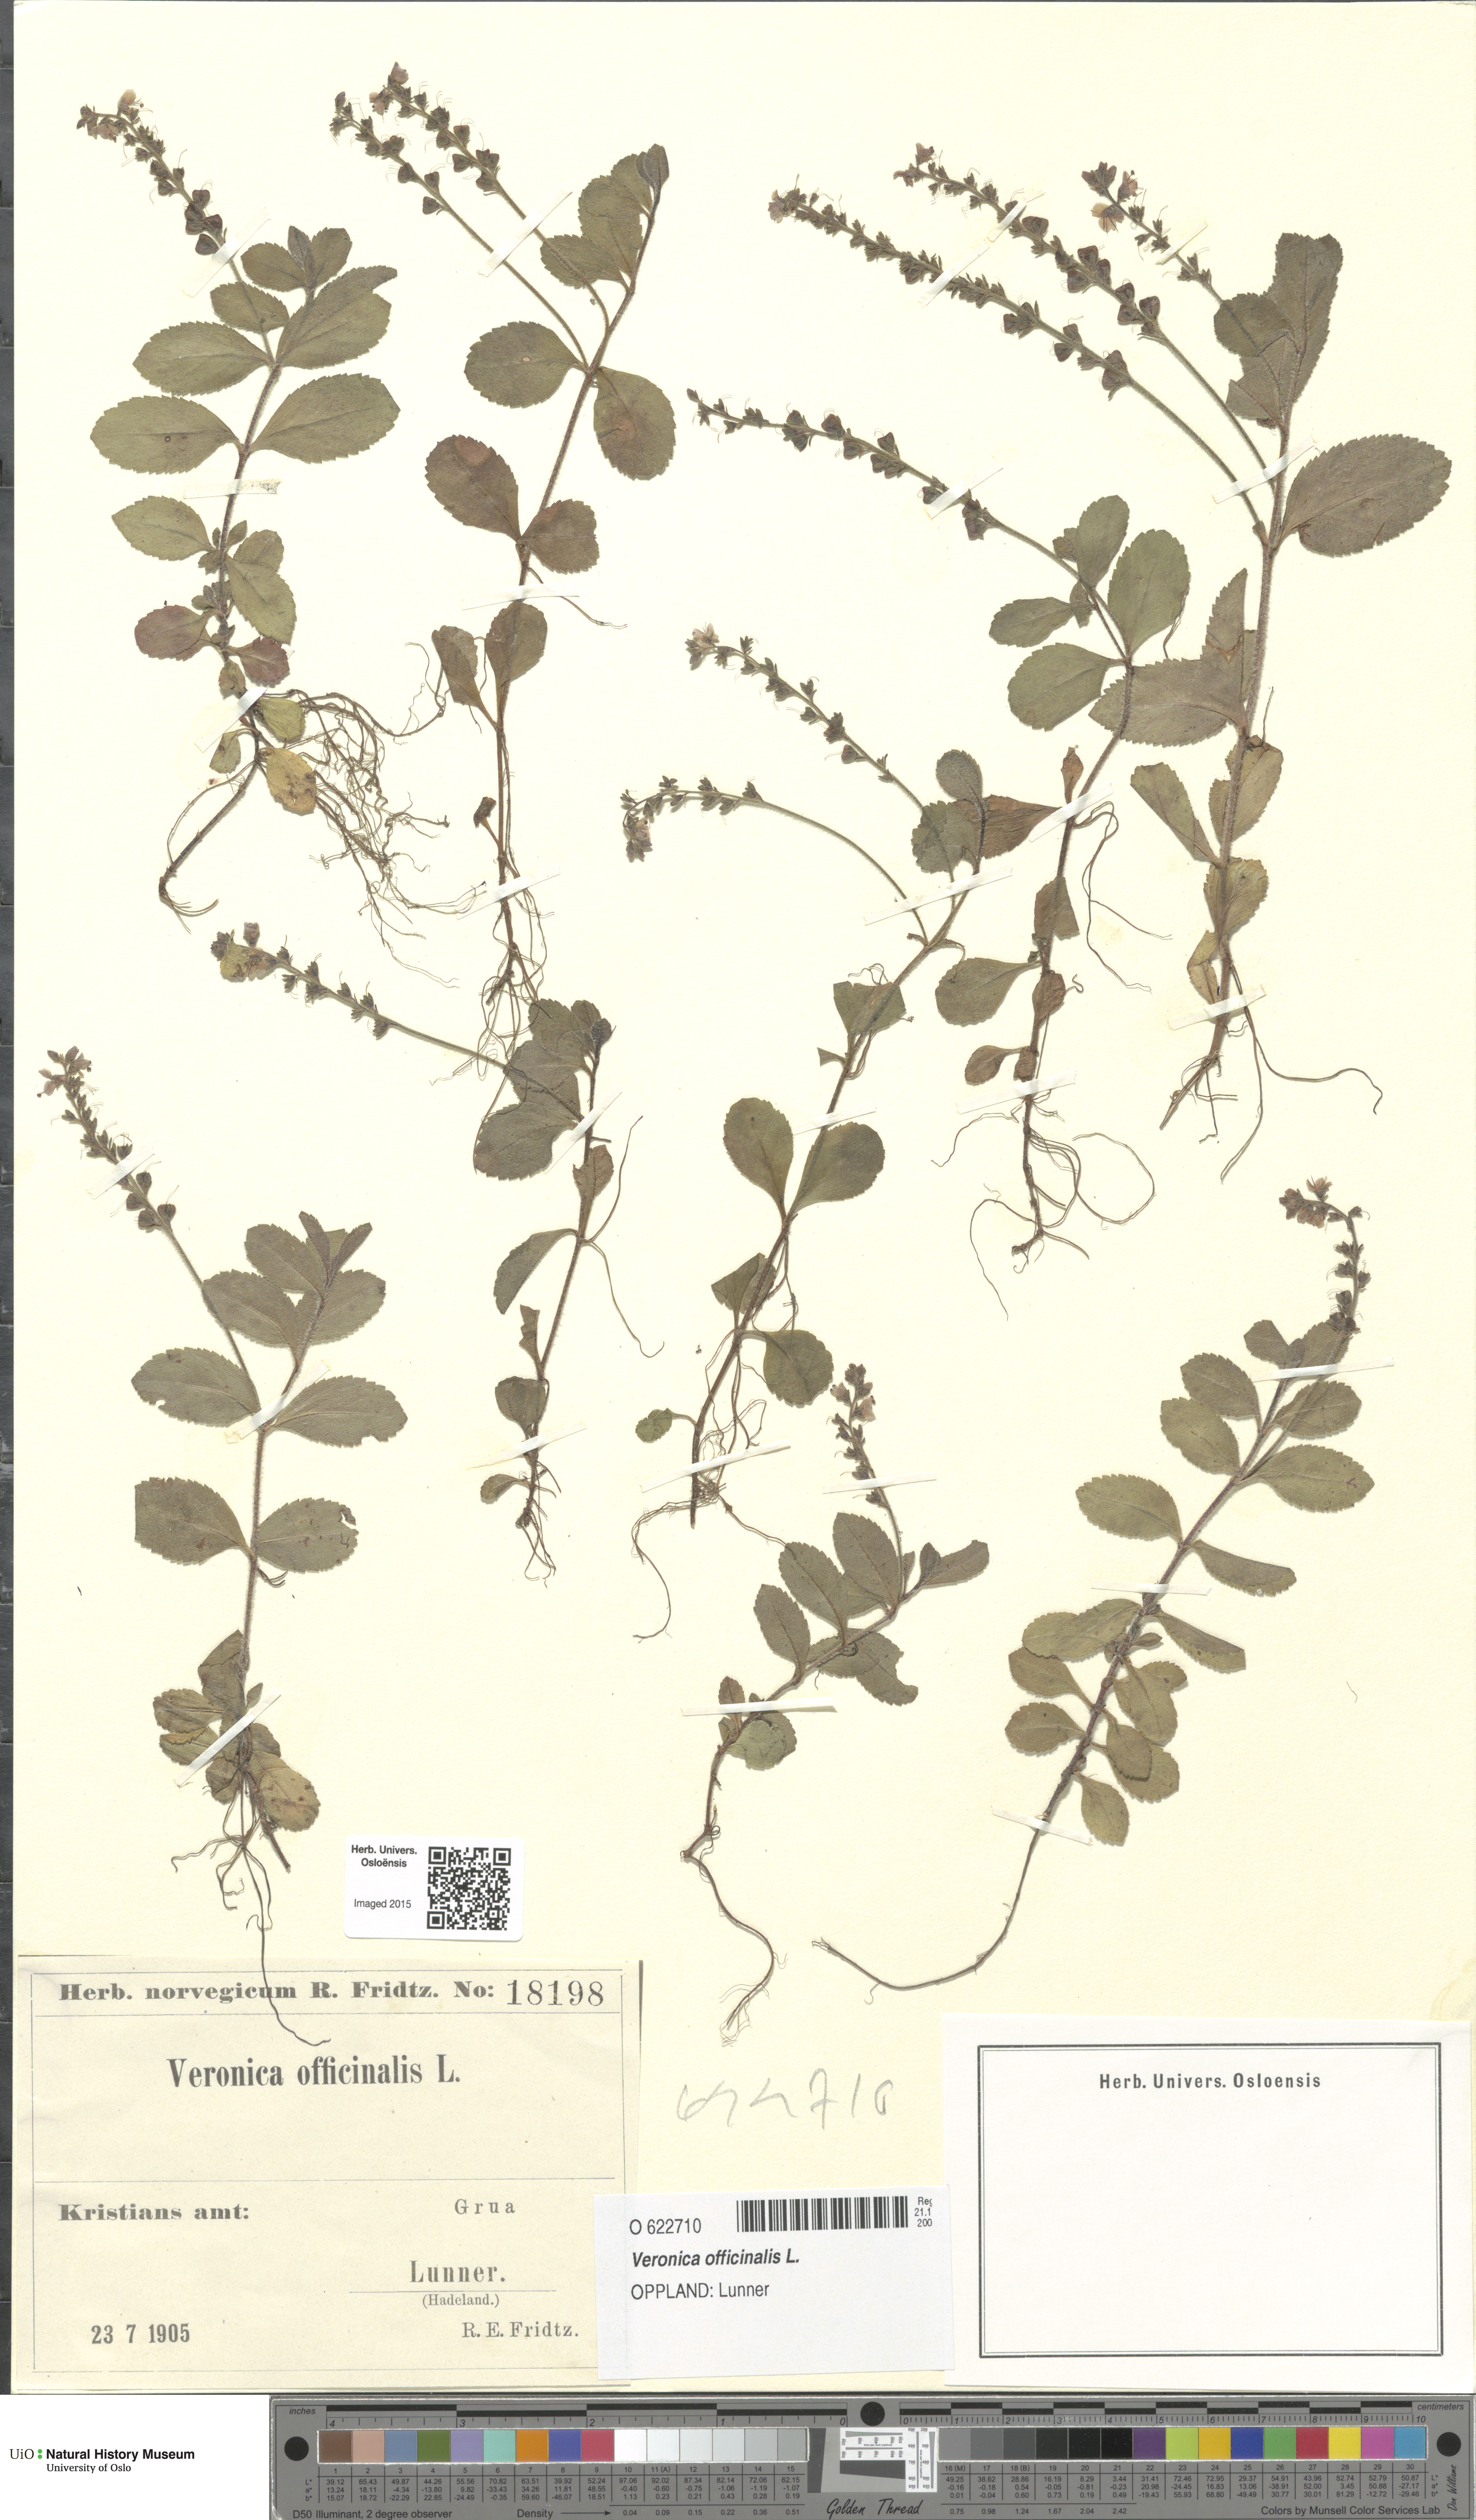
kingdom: Plantae
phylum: Tracheophyta
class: Magnoliopsida
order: Lamiales
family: Plantaginaceae
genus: Veronica
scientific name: Veronica officinalis
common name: Common speedwell
